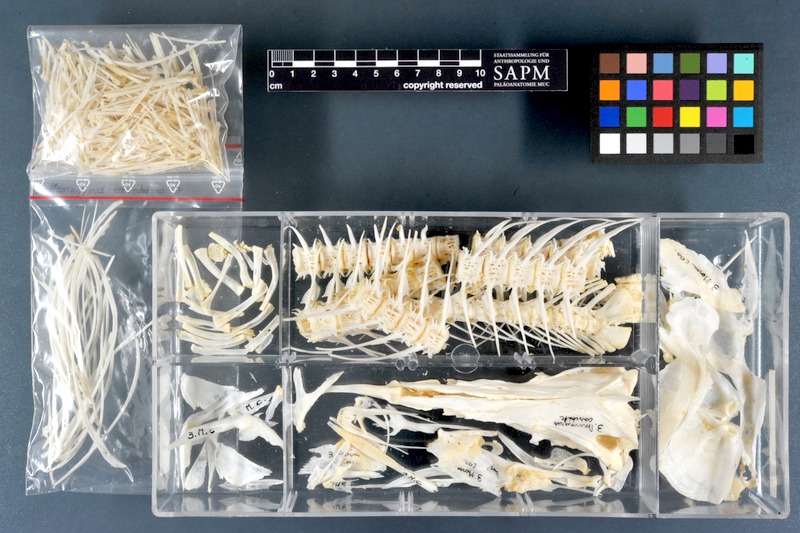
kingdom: Animalia
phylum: Chordata
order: Osteoglossiformes
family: Mormyridae
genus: Mormyrus
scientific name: Mormyrus caschive
